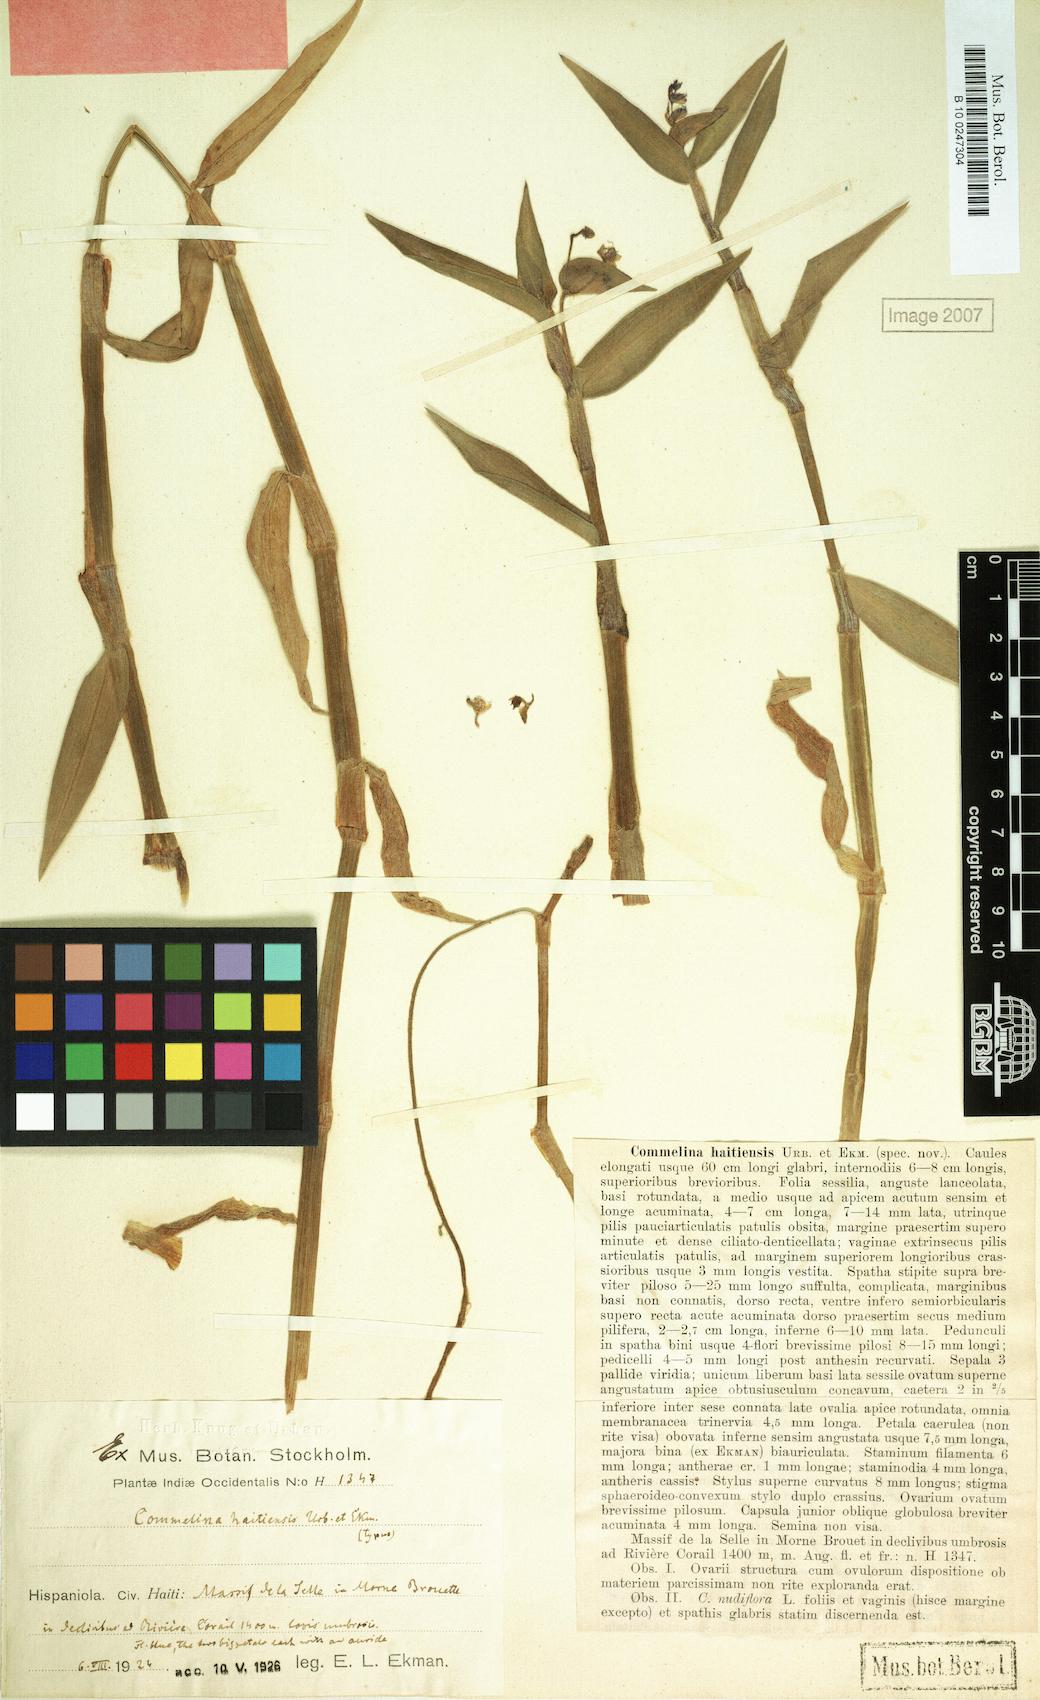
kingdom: Plantae
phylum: Tracheophyta
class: Liliopsida
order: Commelinales
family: Commelinaceae
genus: Commelina
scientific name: Commelina haitiensis
